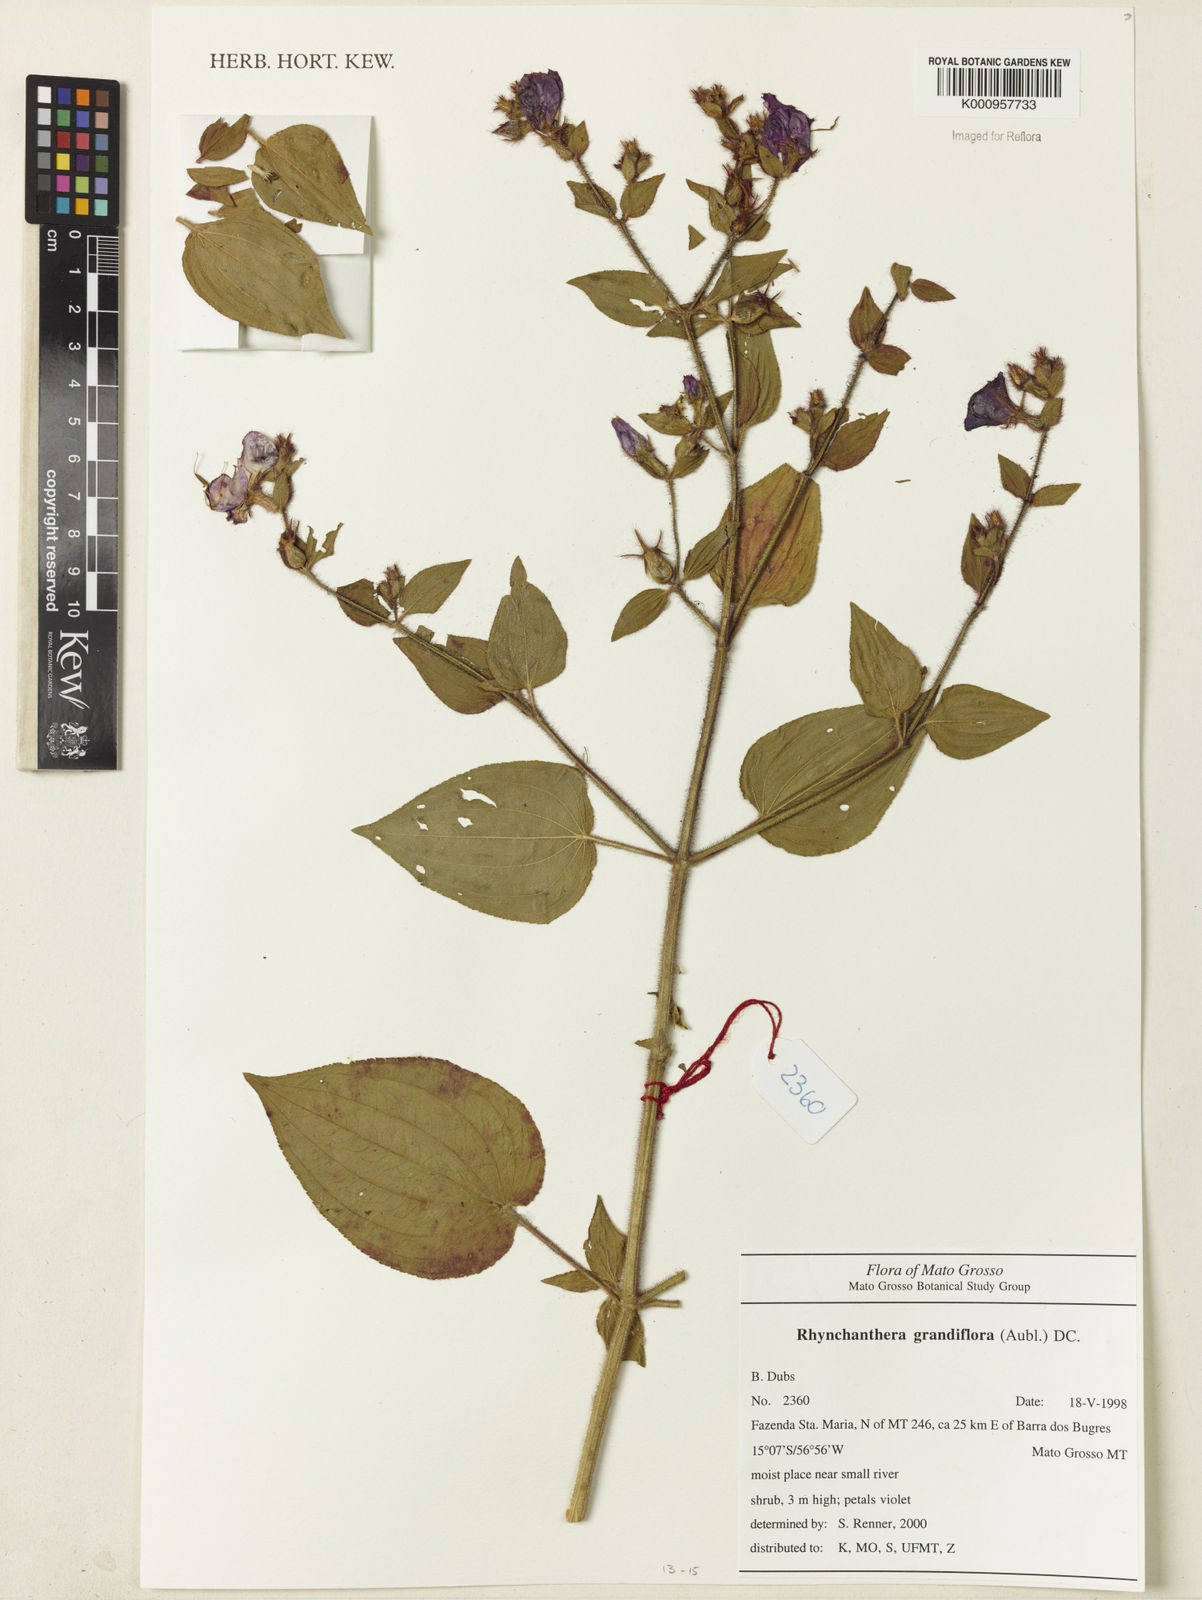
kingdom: Plantae
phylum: Tracheophyta
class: Magnoliopsida
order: Myrtales
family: Melastomataceae
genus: Rhynchanthera
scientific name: Rhynchanthera grandiflora
